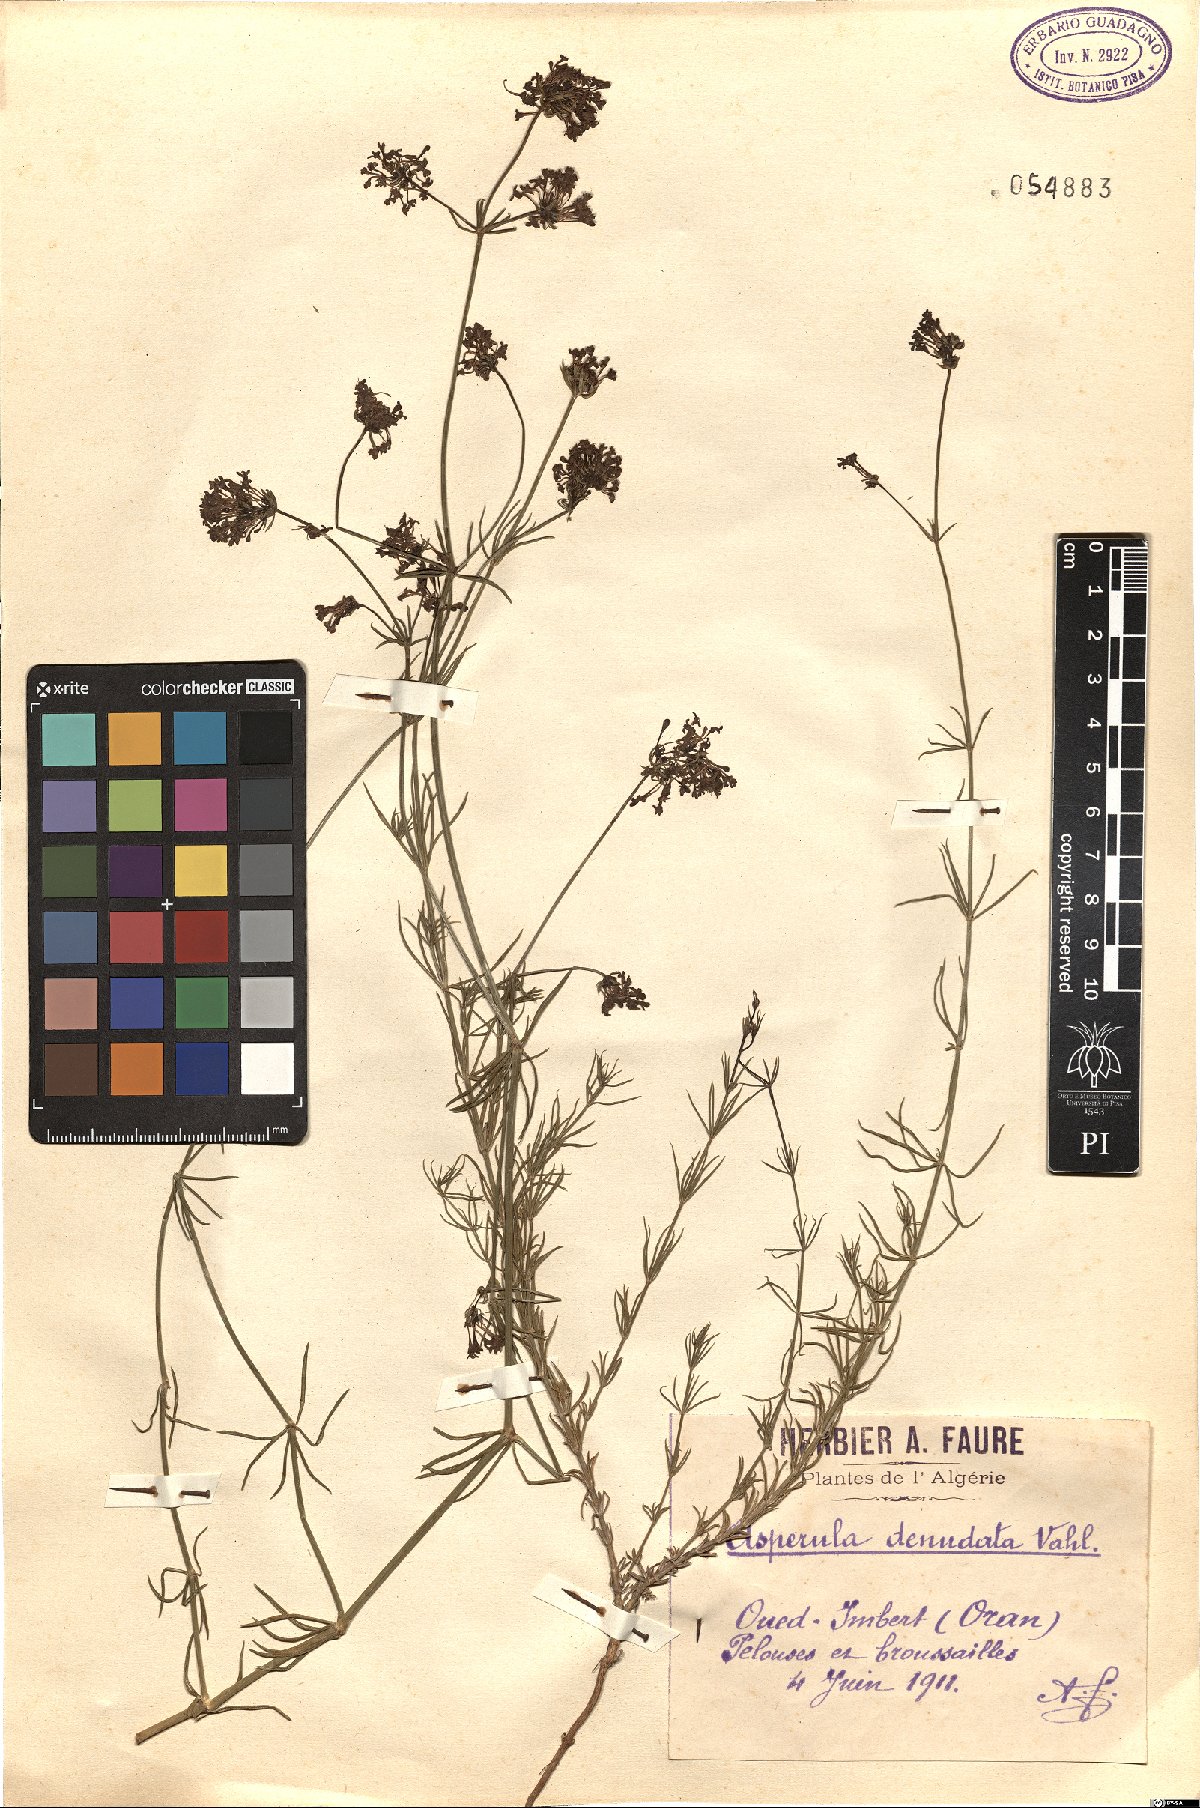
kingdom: Plantae
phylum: Tracheophyta
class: Magnoliopsida
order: Gentianales
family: Rubiaceae
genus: Hexaphylla
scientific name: Hexaphylla hirsuta
